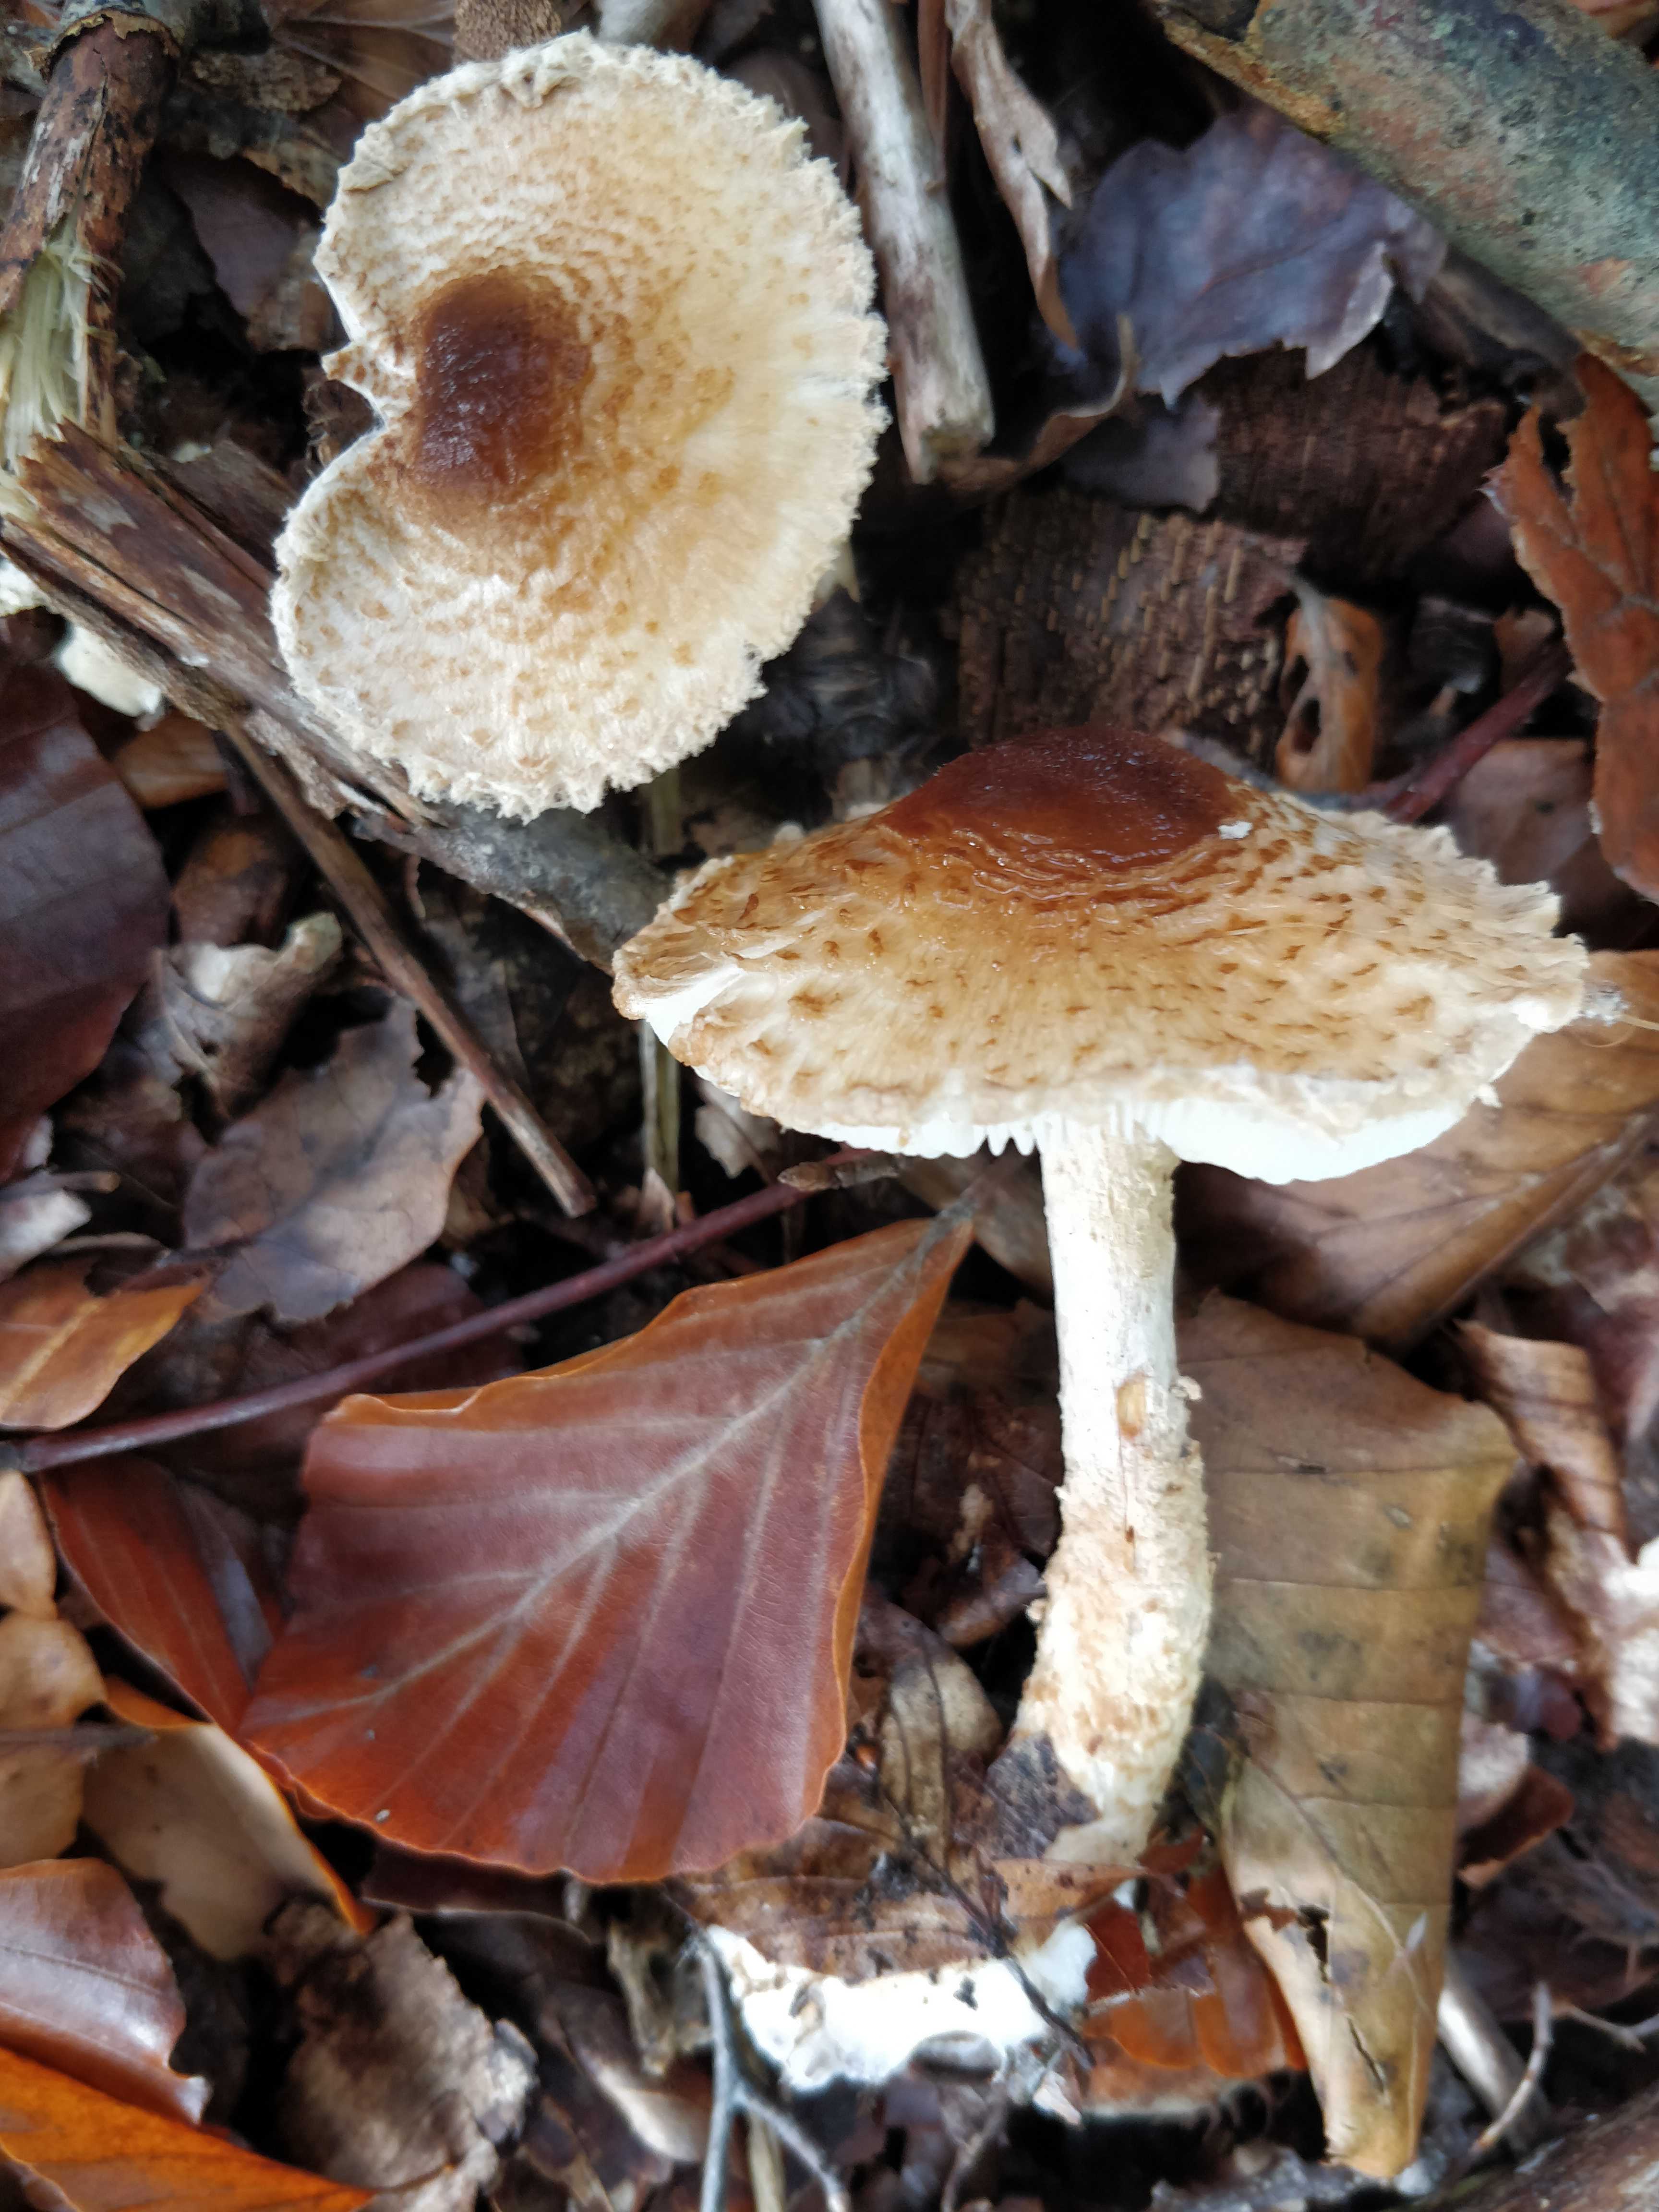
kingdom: Fungi
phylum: Basidiomycota
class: Agaricomycetes
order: Agaricales
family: Agaricaceae
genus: Lepiota
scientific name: Lepiota
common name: parasolhat
